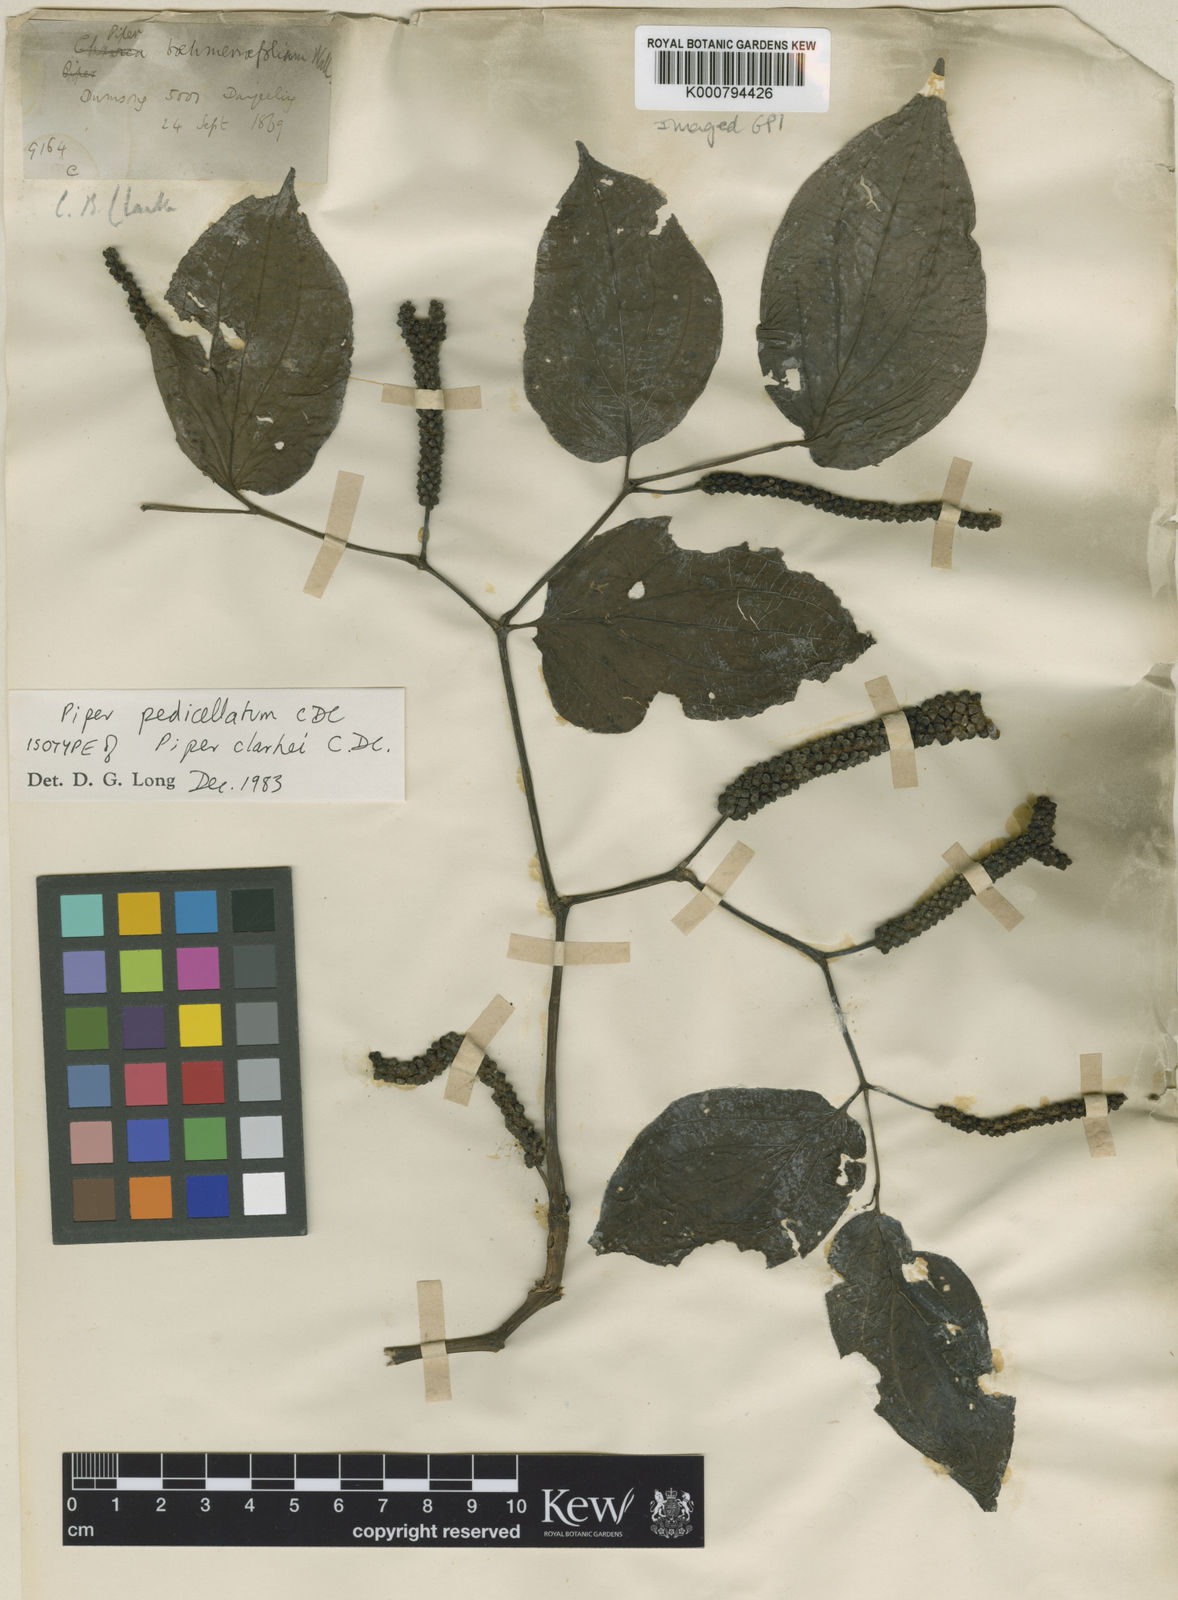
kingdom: Plantae
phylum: Tracheophyta
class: Magnoliopsida
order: Piperales
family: Piperaceae
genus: Piper
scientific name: Piper pedicellatum
